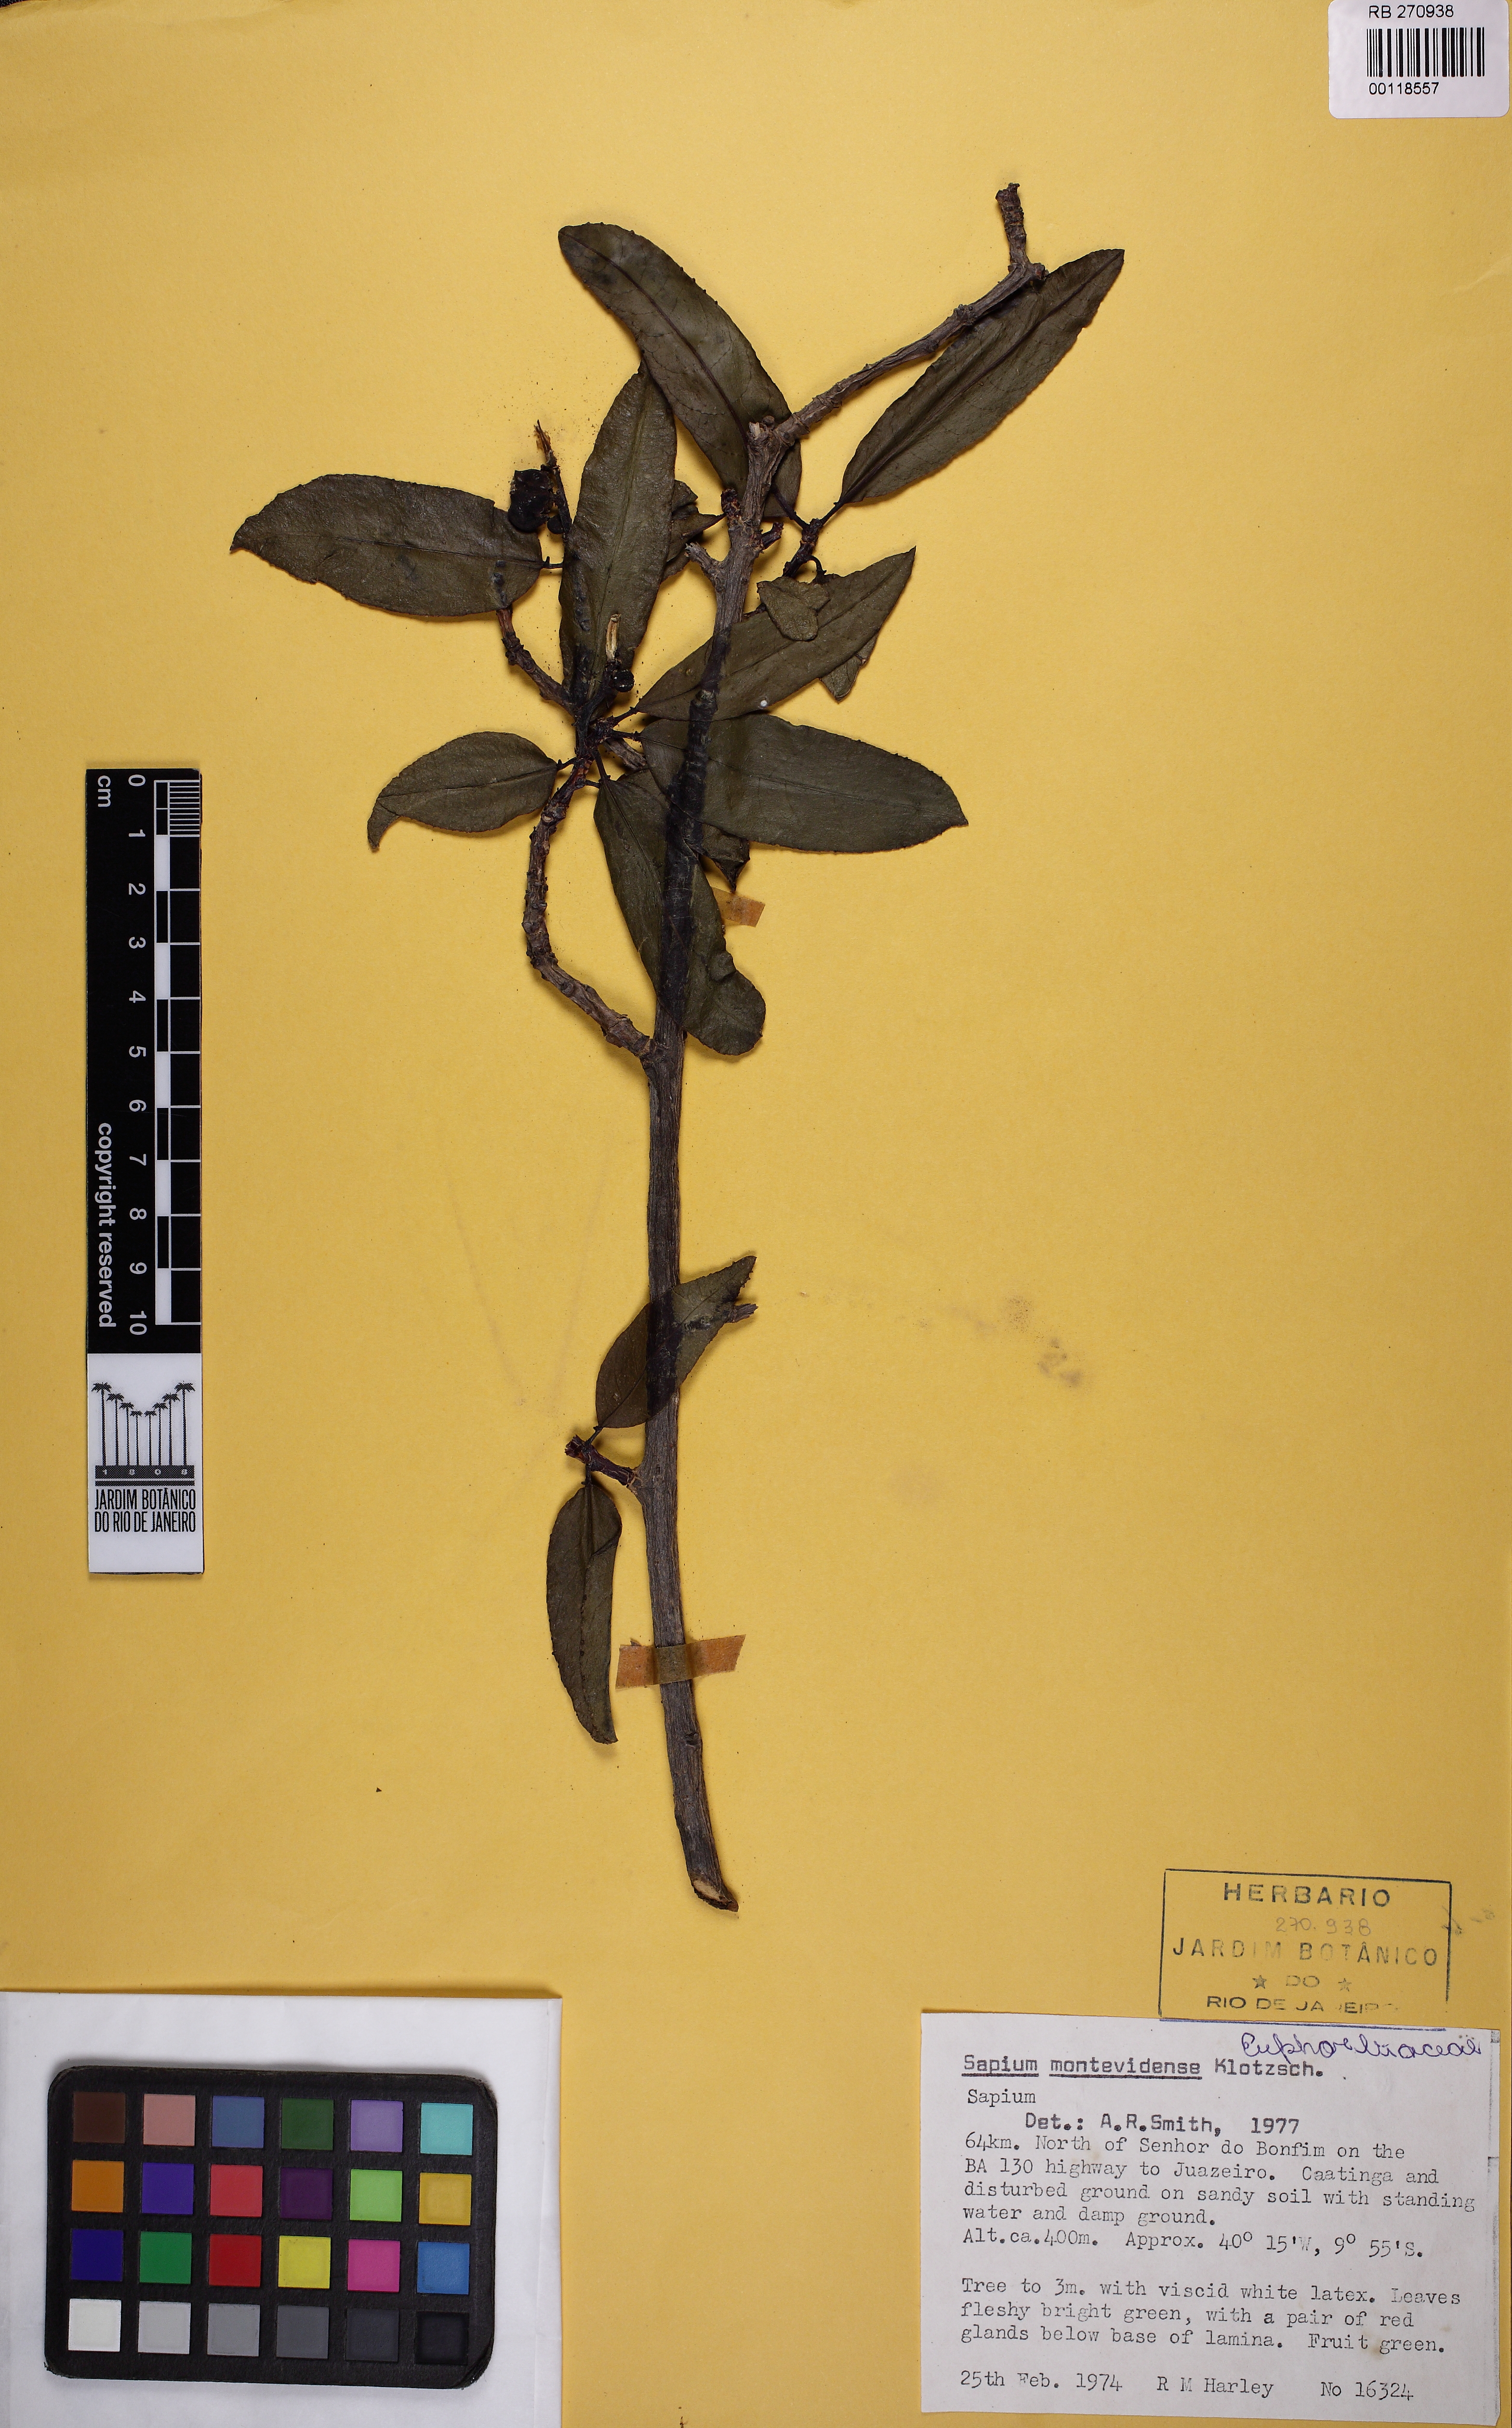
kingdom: Plantae
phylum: Tracheophyta
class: Magnoliopsida
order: Malpighiales
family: Euphorbiaceae
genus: Sapium
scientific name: Sapium argutum
